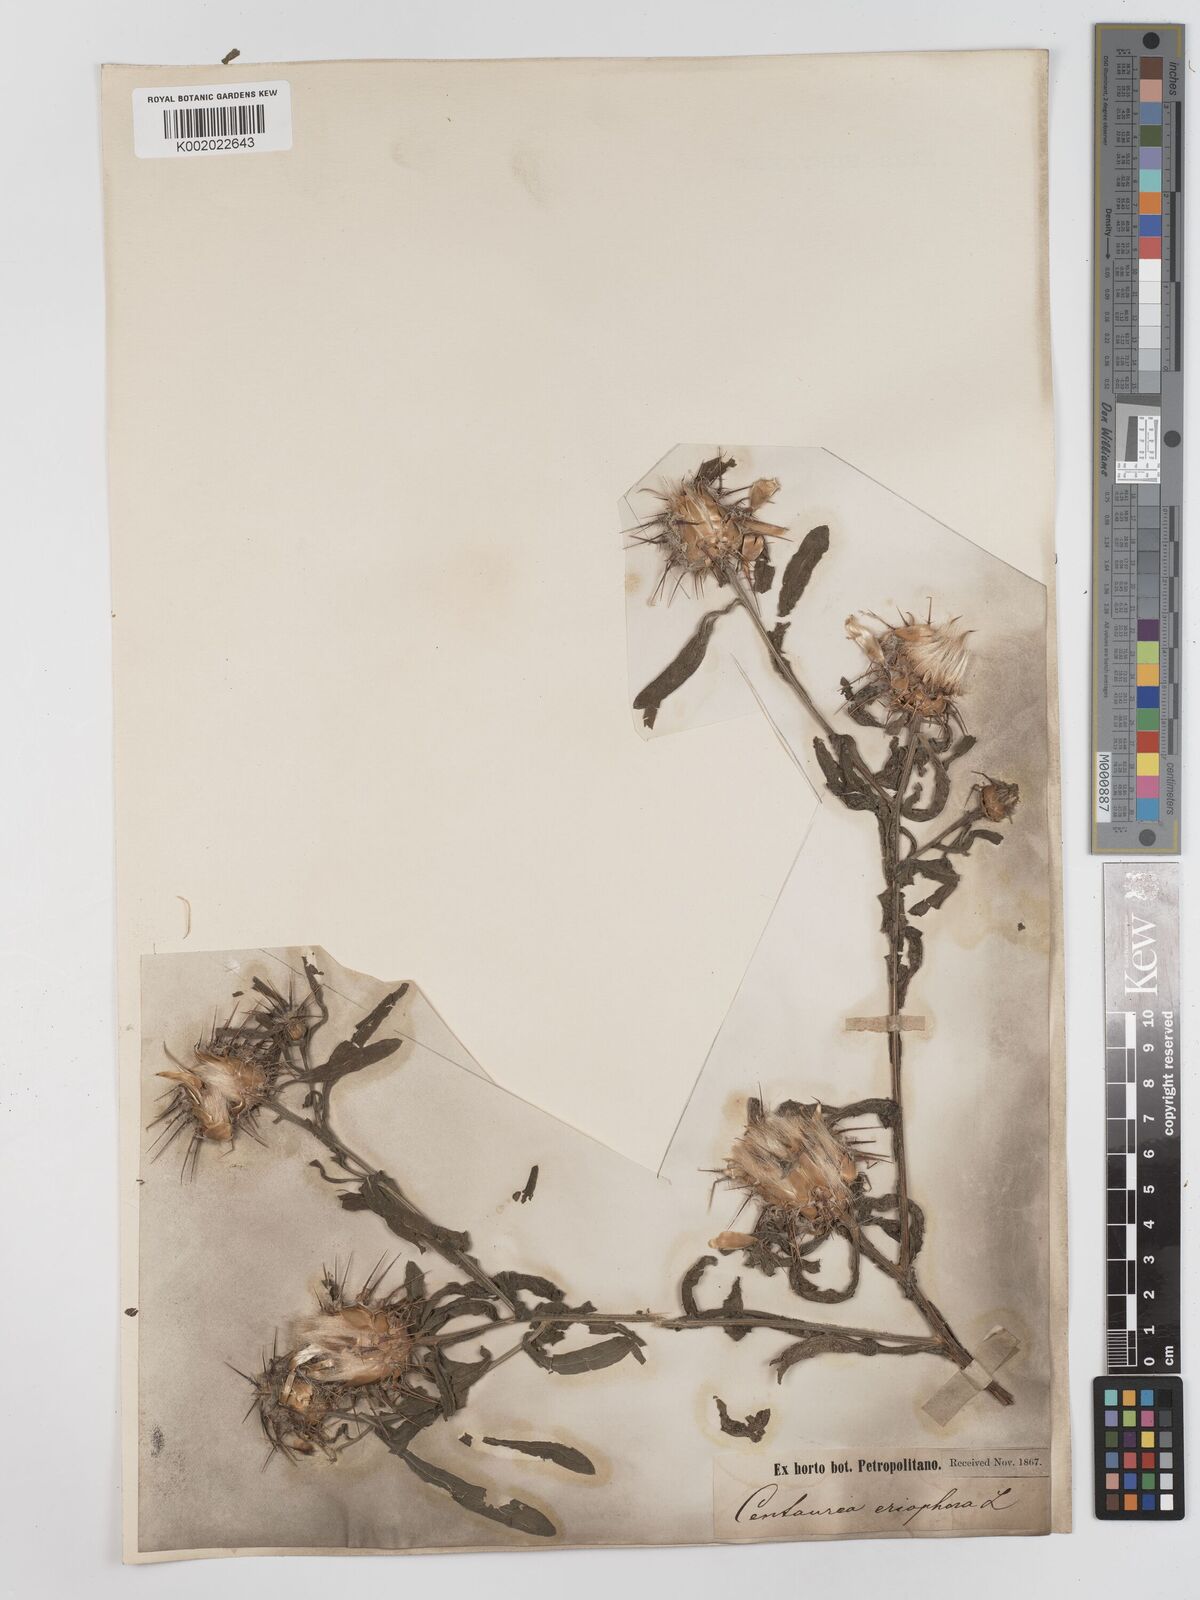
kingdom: Plantae
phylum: Tracheophyta
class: Magnoliopsida
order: Asterales
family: Asteraceae
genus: Centaurea
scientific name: Centaurea eriophora
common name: Wild sandheath
